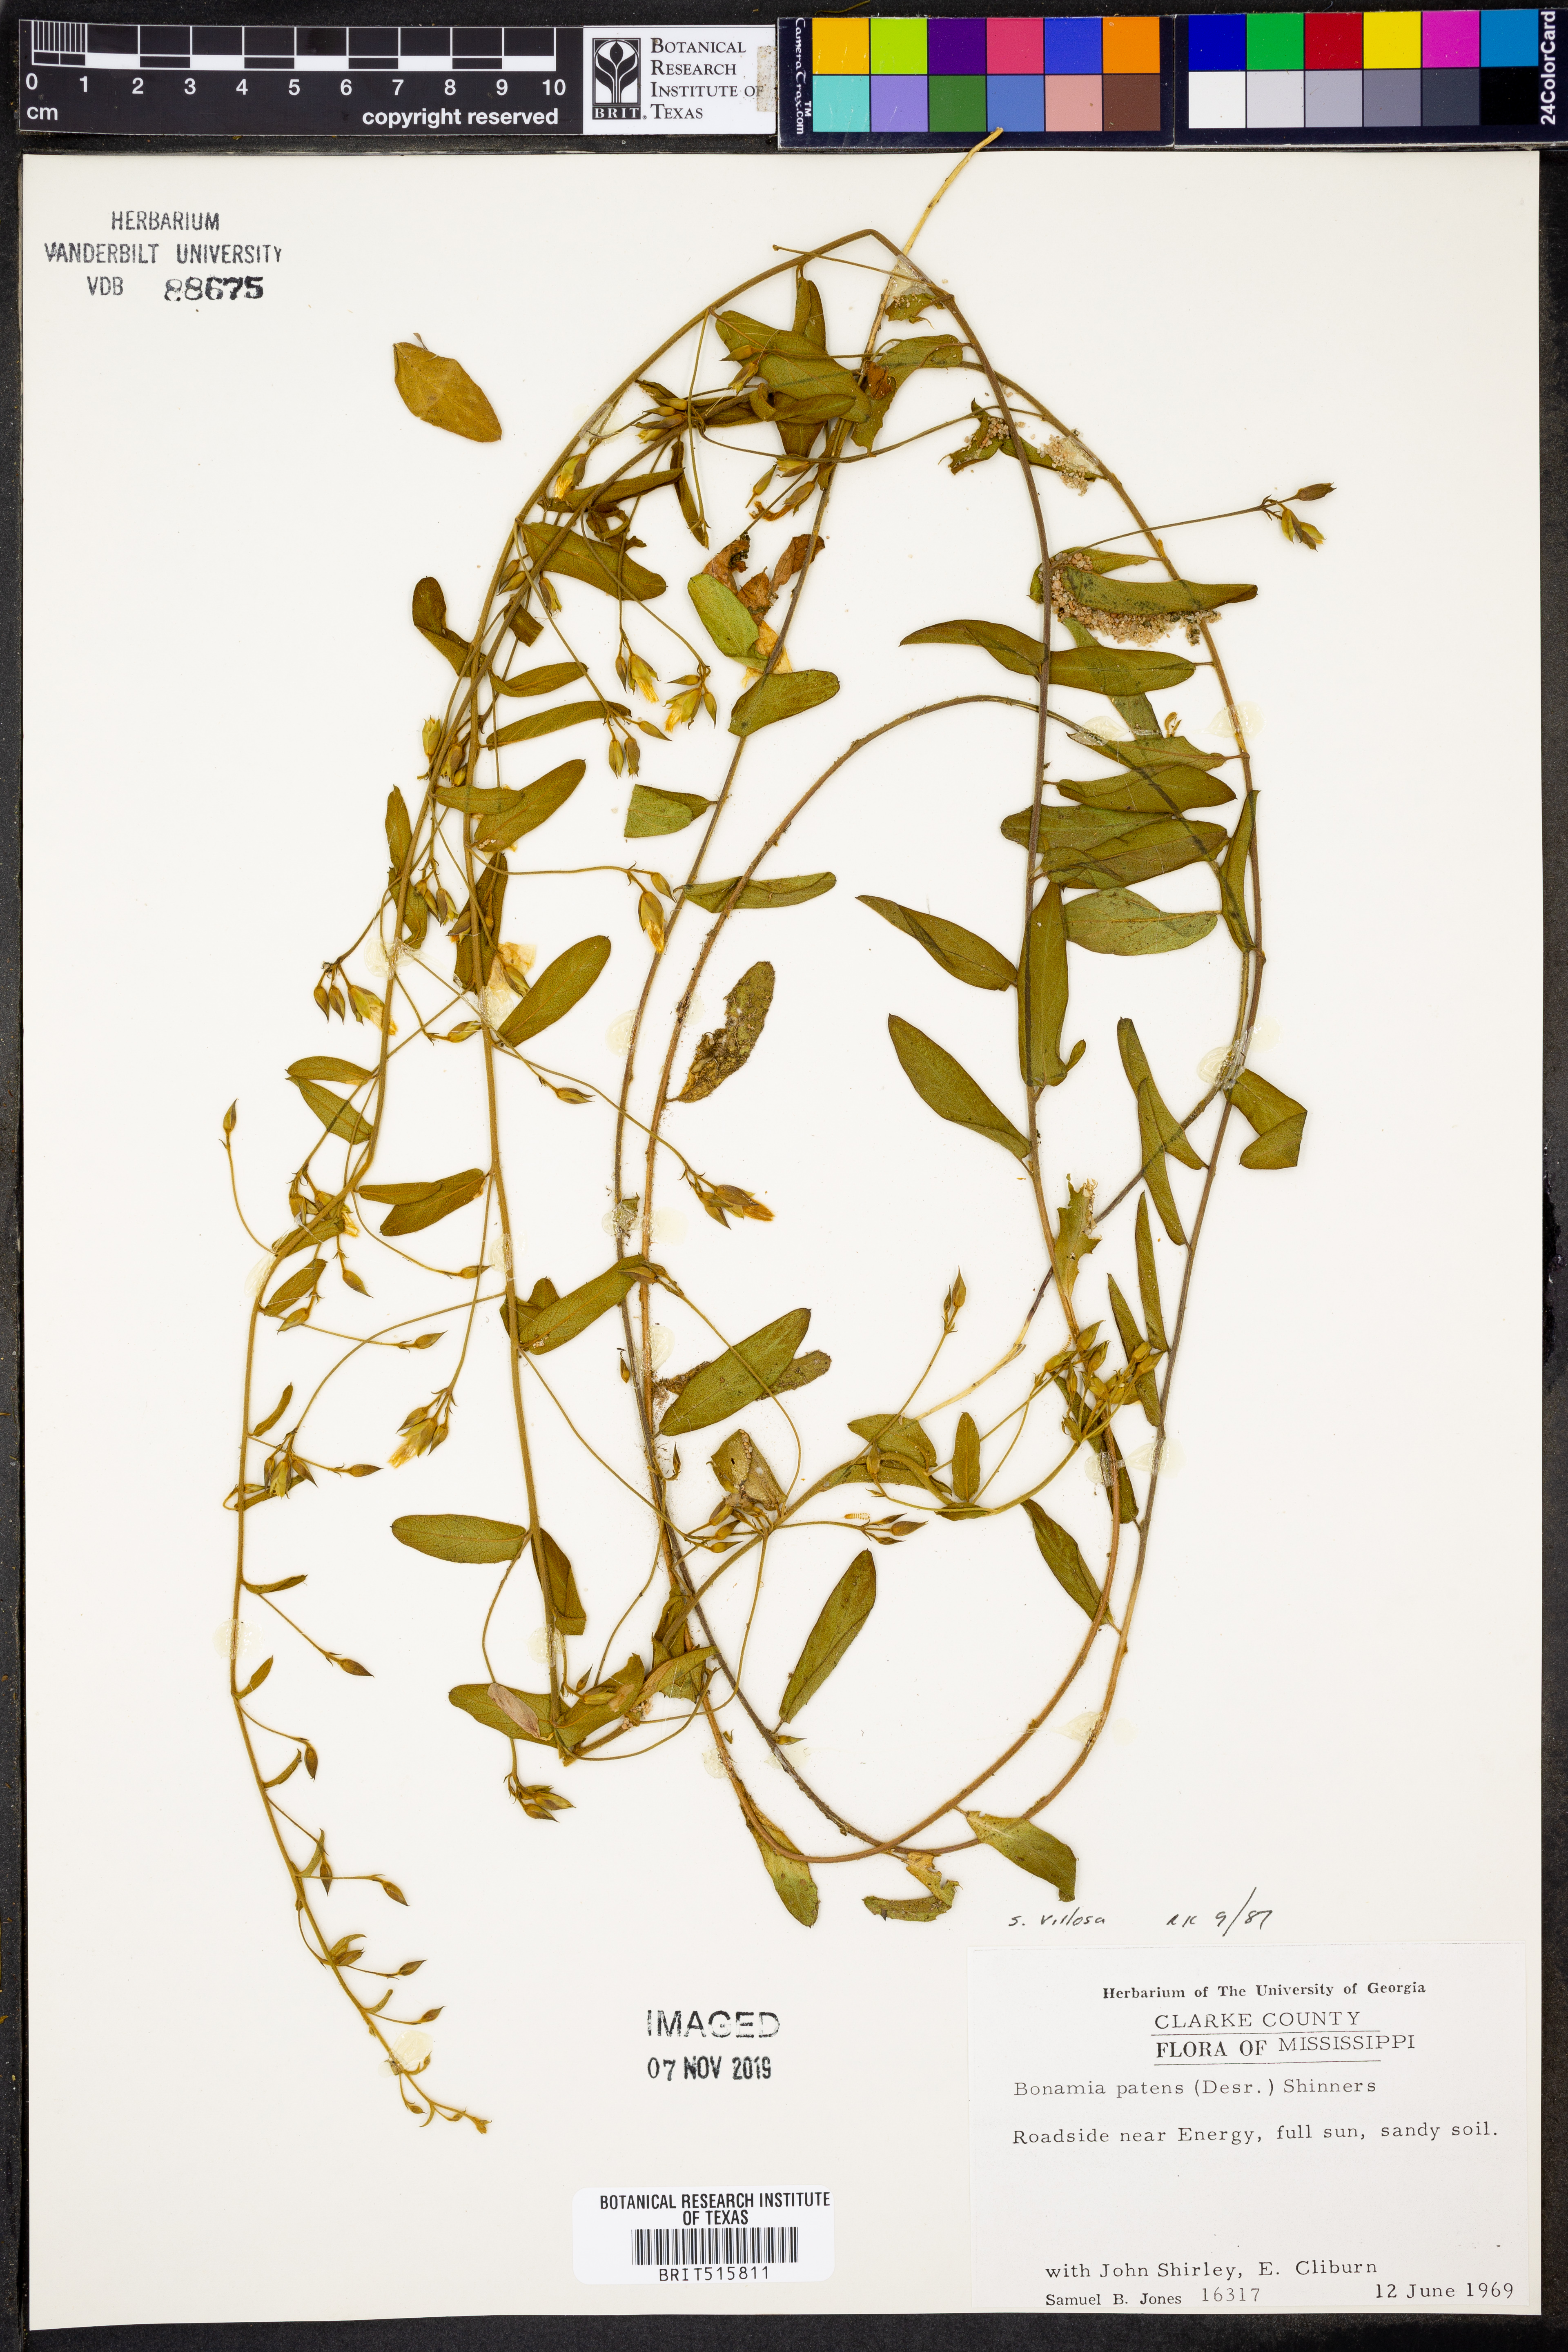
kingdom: Plantae
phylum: Tracheophyta
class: Magnoliopsida
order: Solanales
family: Convolvulaceae
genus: Stylisma
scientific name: Stylisma villosa
